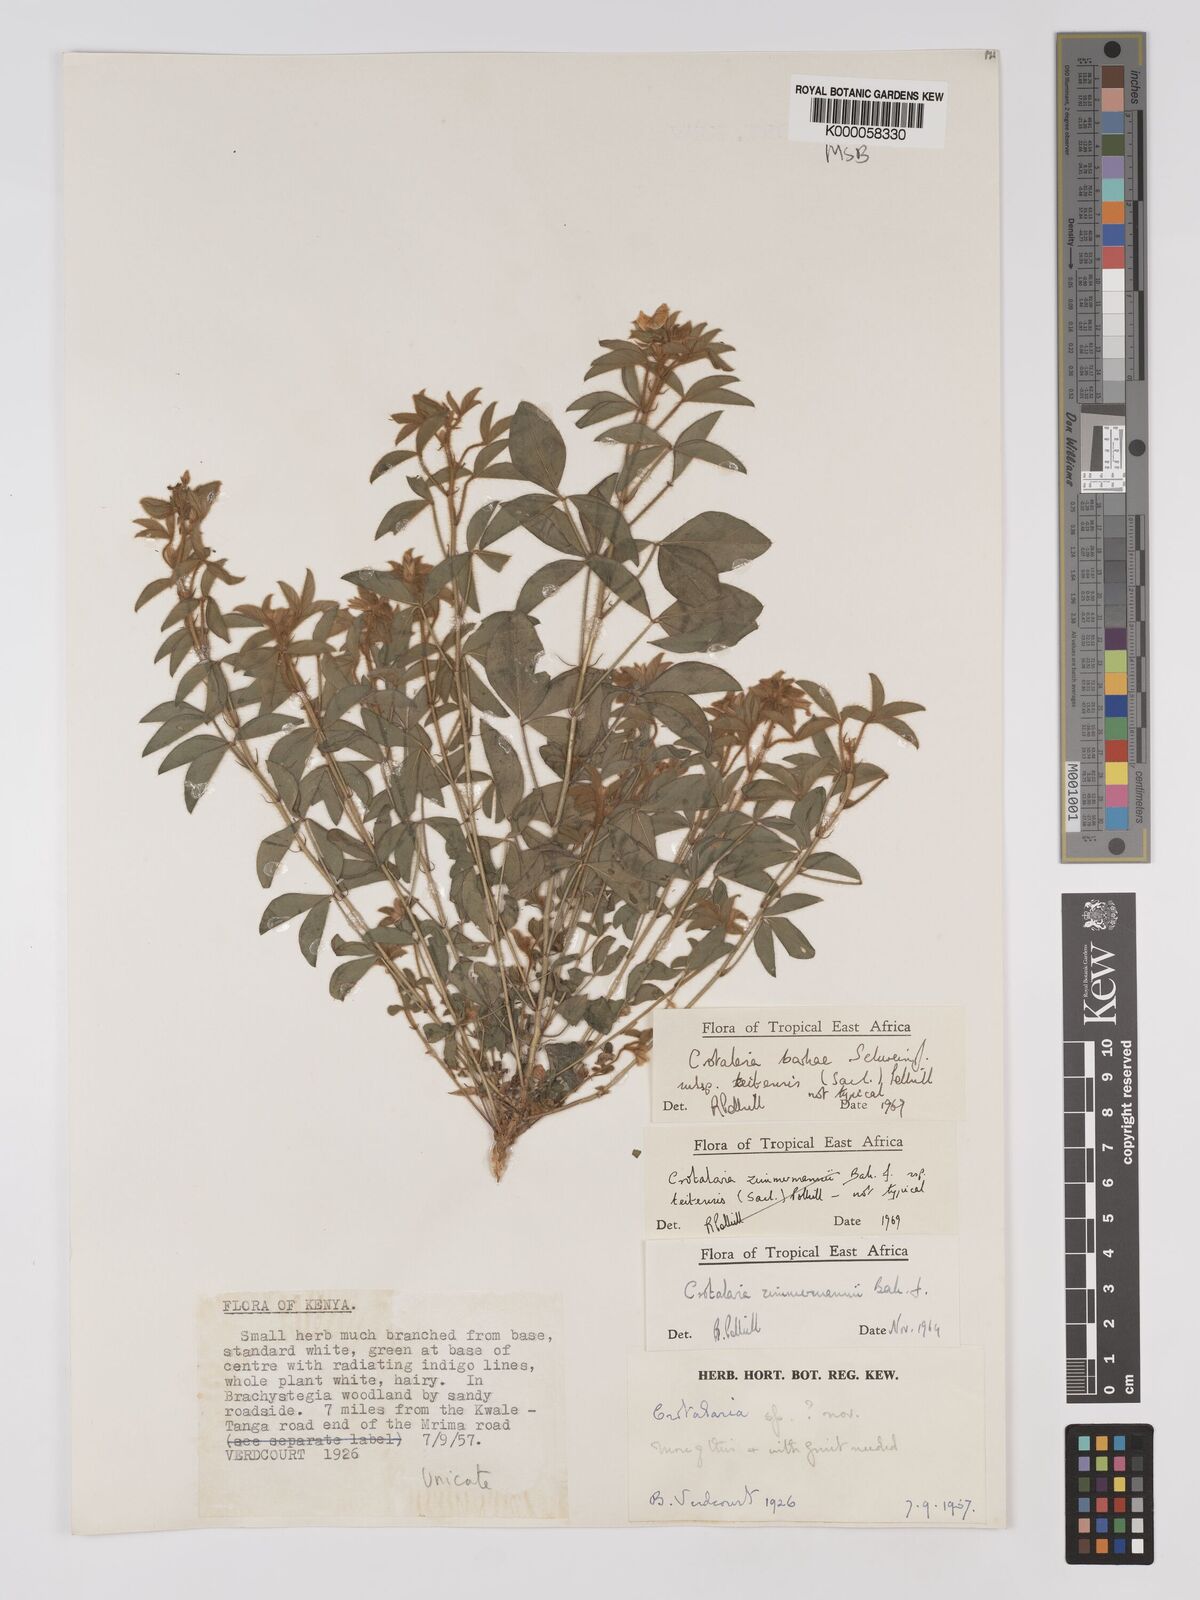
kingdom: Plantae
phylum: Tracheophyta
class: Magnoliopsida
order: Fabales
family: Fabaceae
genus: Crotalaria
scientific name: Crotalaria barkae
